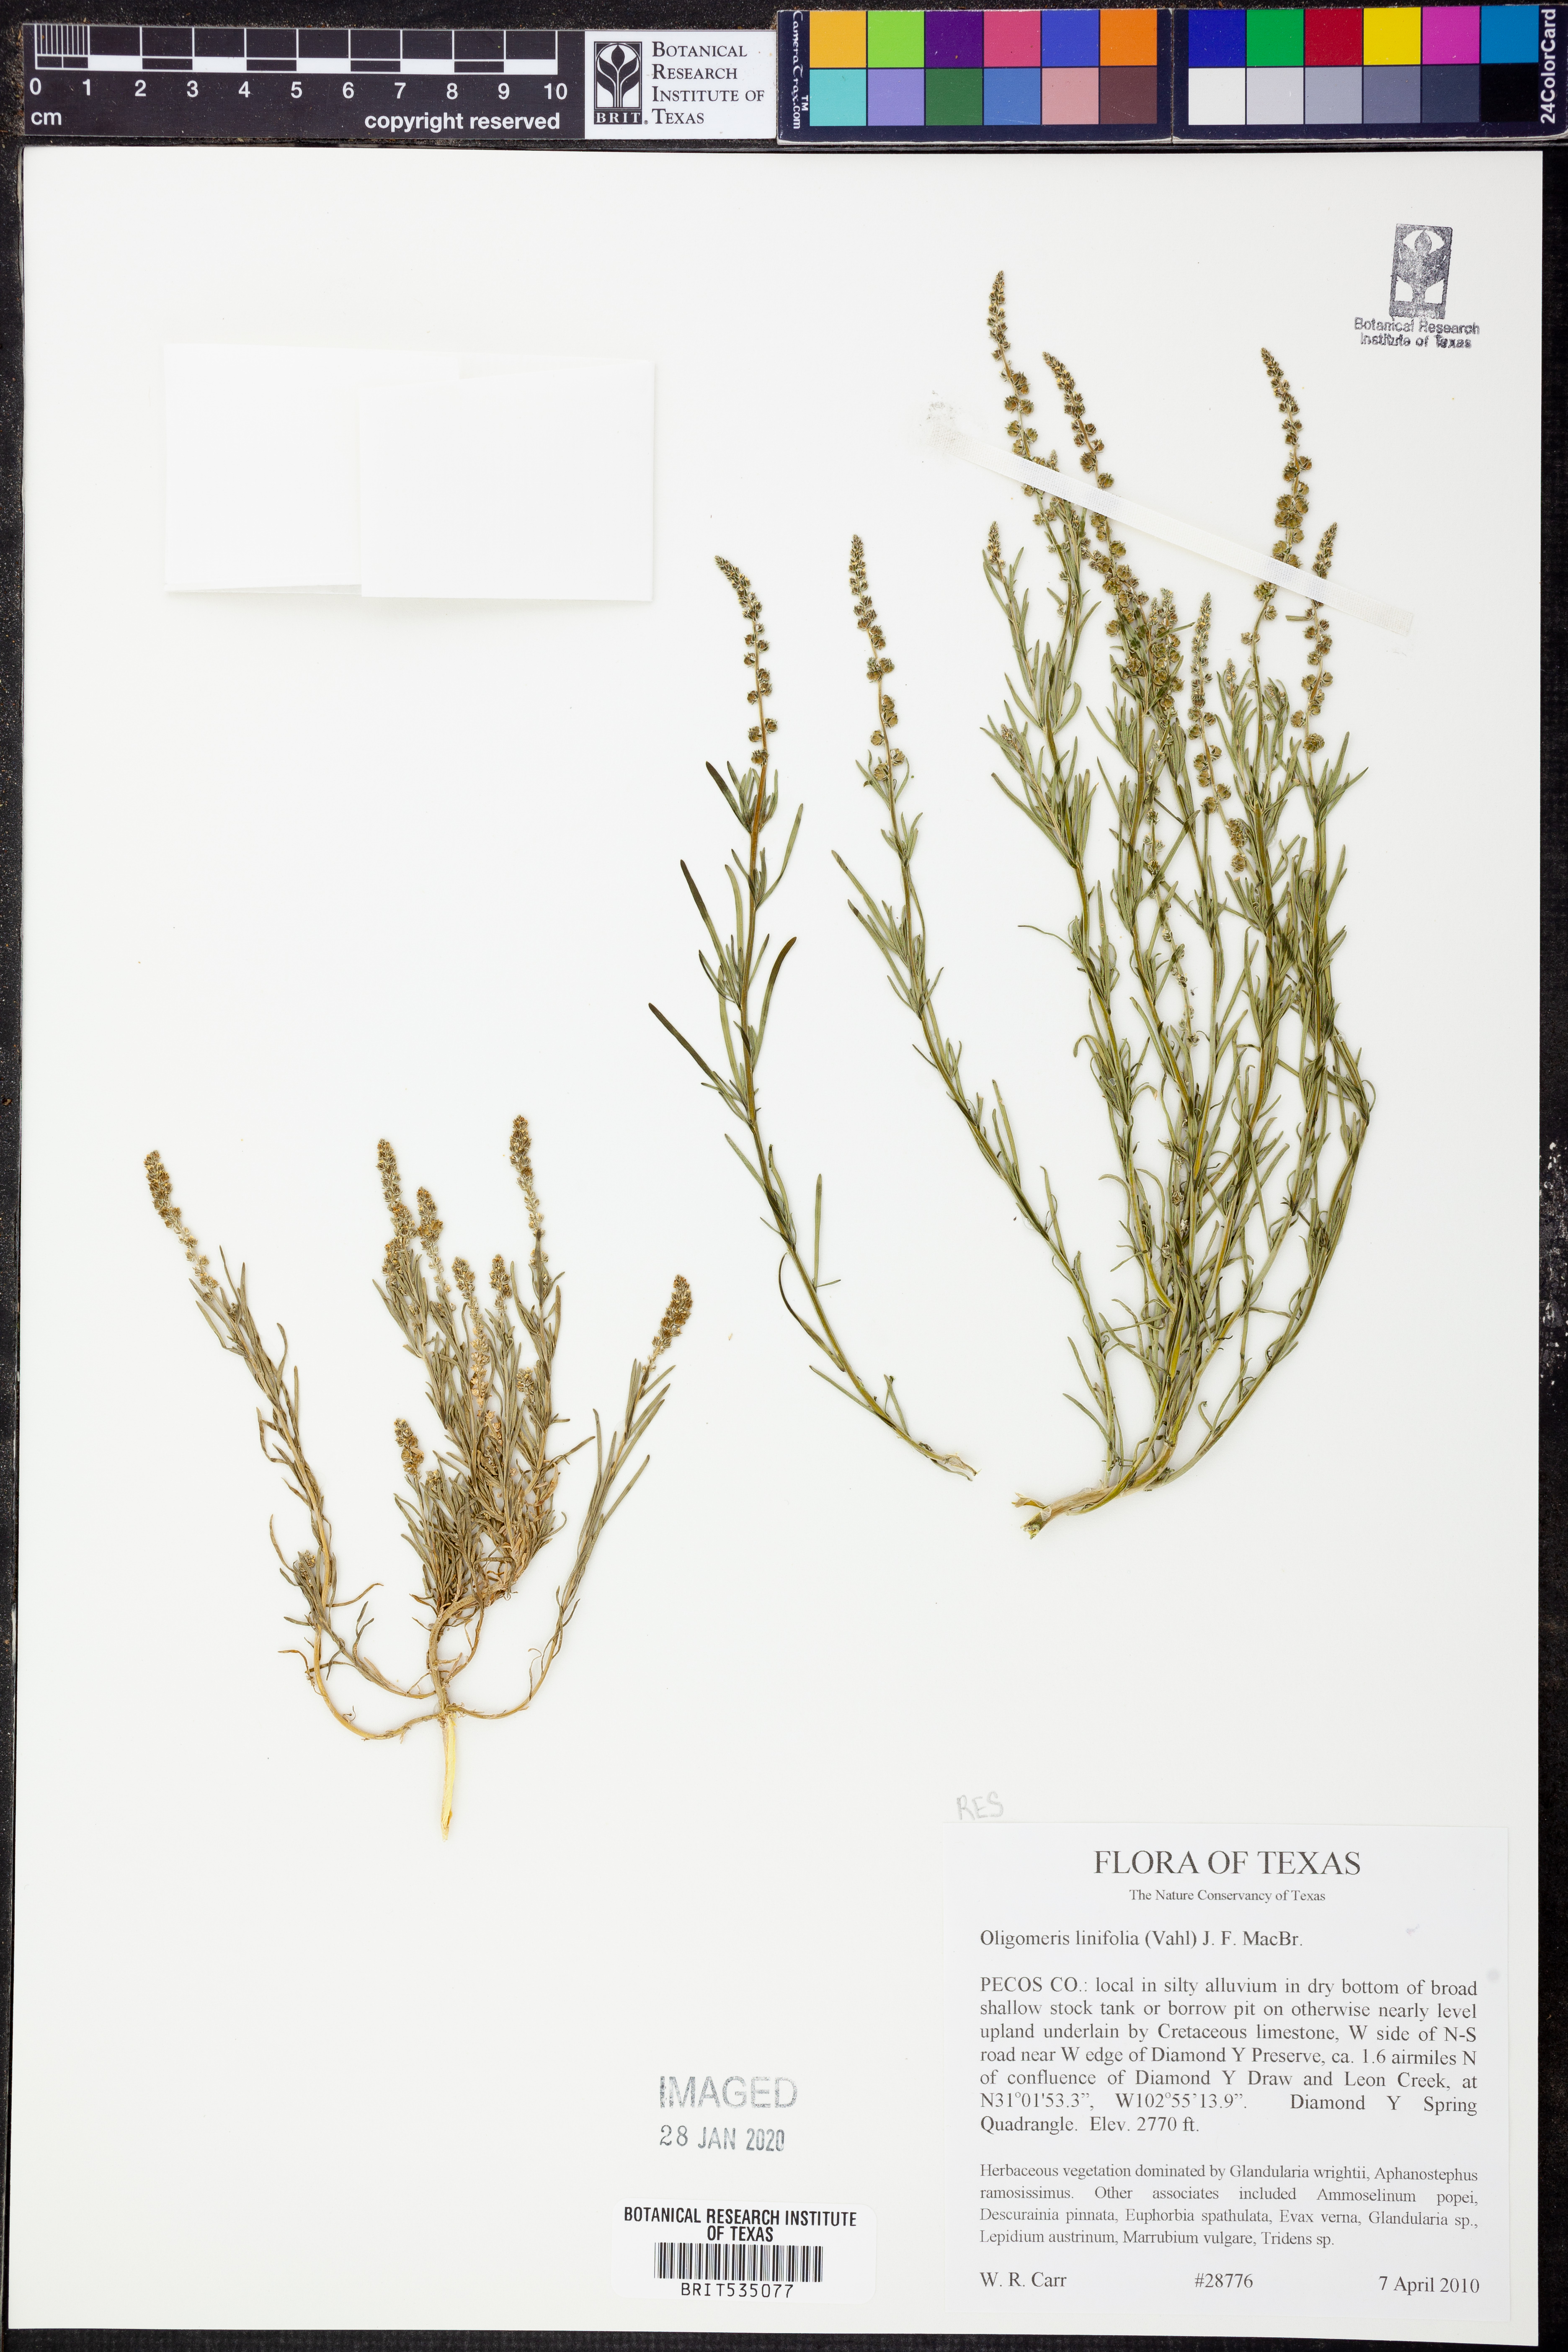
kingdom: Plantae
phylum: Tracheophyta
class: Magnoliopsida
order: Brassicales
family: Resedaceae
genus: Oligomeris
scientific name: Oligomeris linifolia
